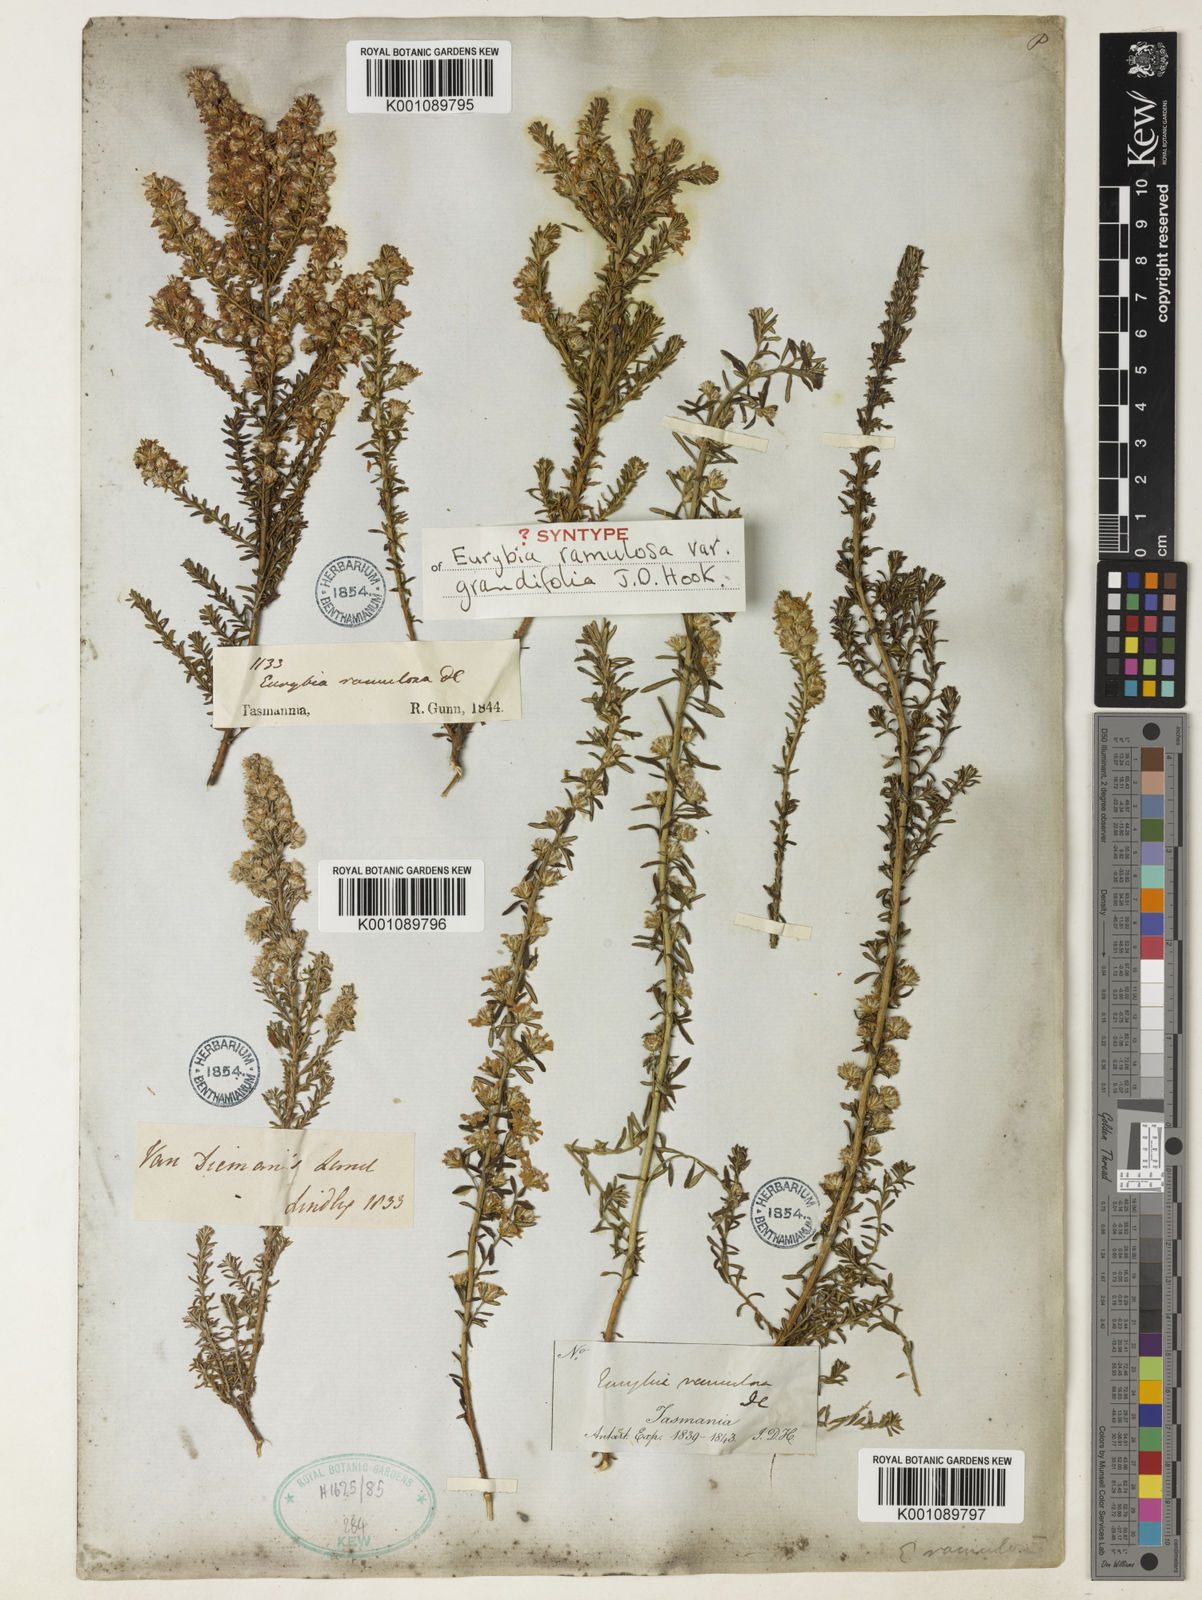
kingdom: Plantae
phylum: Tracheophyta
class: Magnoliopsida
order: Asterales
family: Asteraceae
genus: Olearia
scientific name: Olearia ramulosa
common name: Twiggy daisybush
